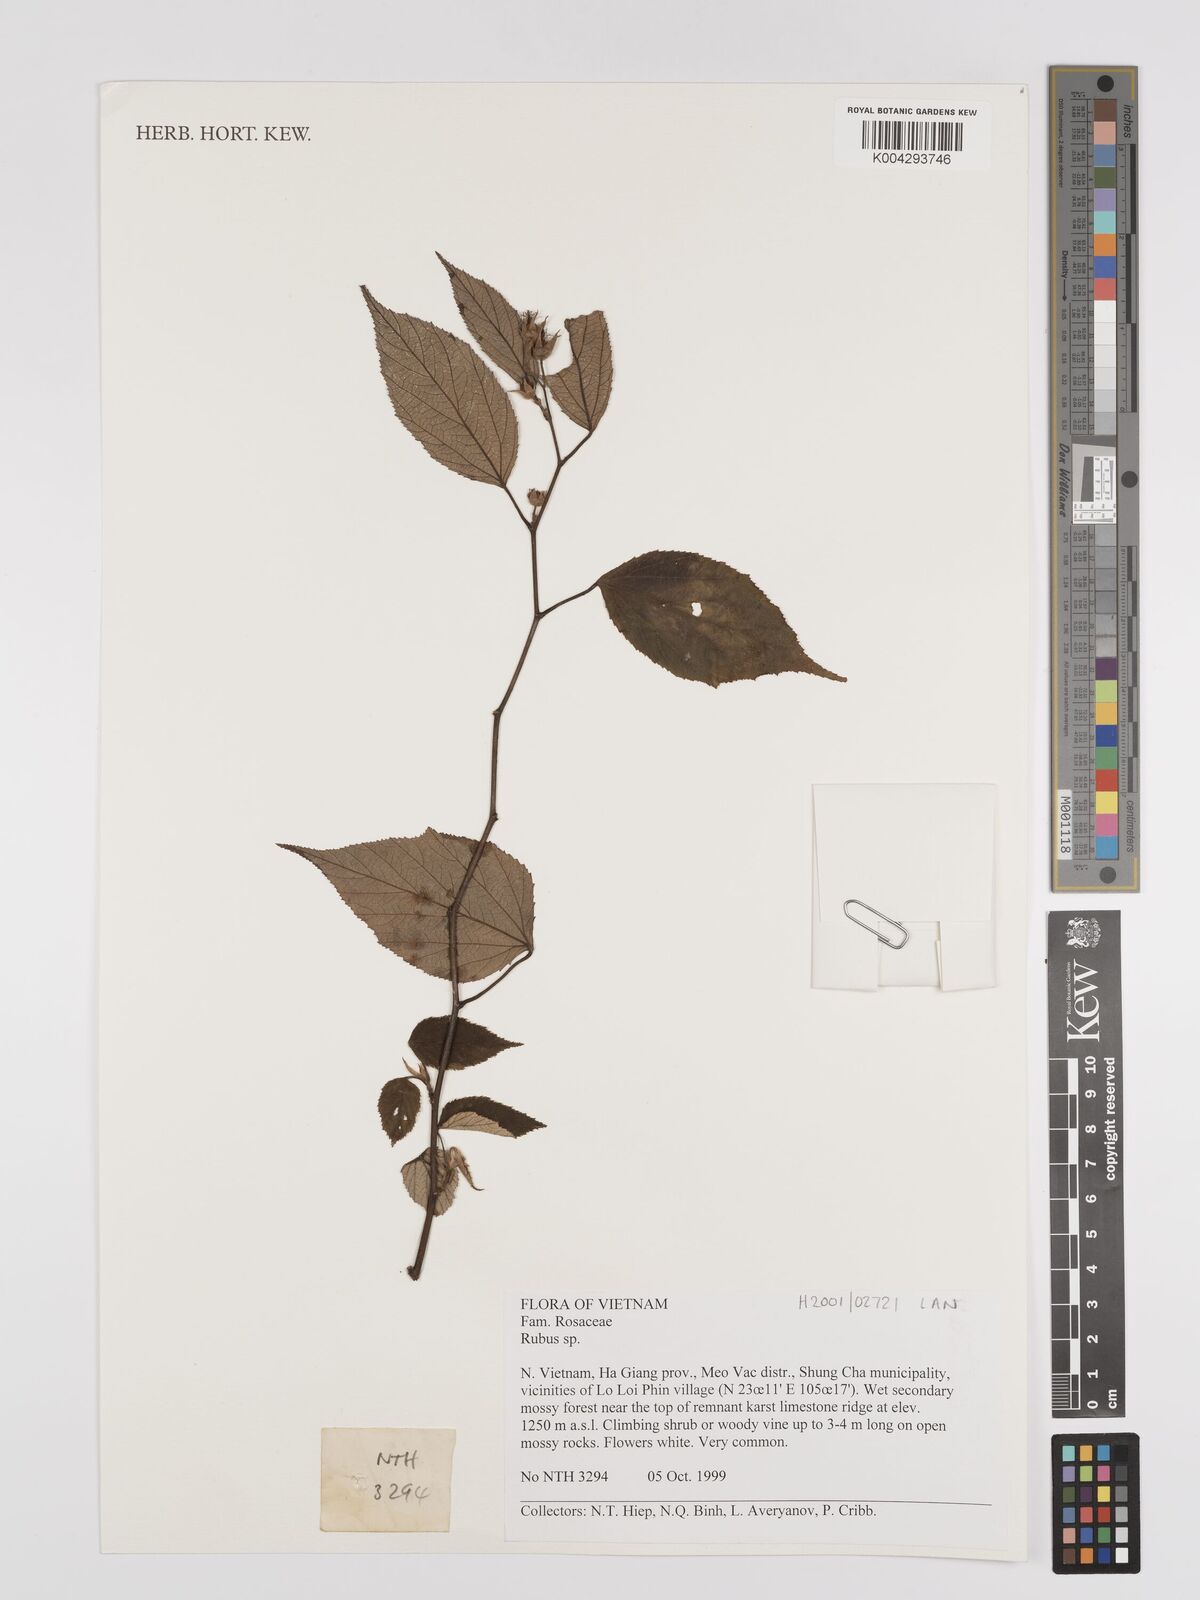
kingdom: Plantae
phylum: Tracheophyta
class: Magnoliopsida
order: Rosales
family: Rosaceae
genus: Rubus
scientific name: Rubus
